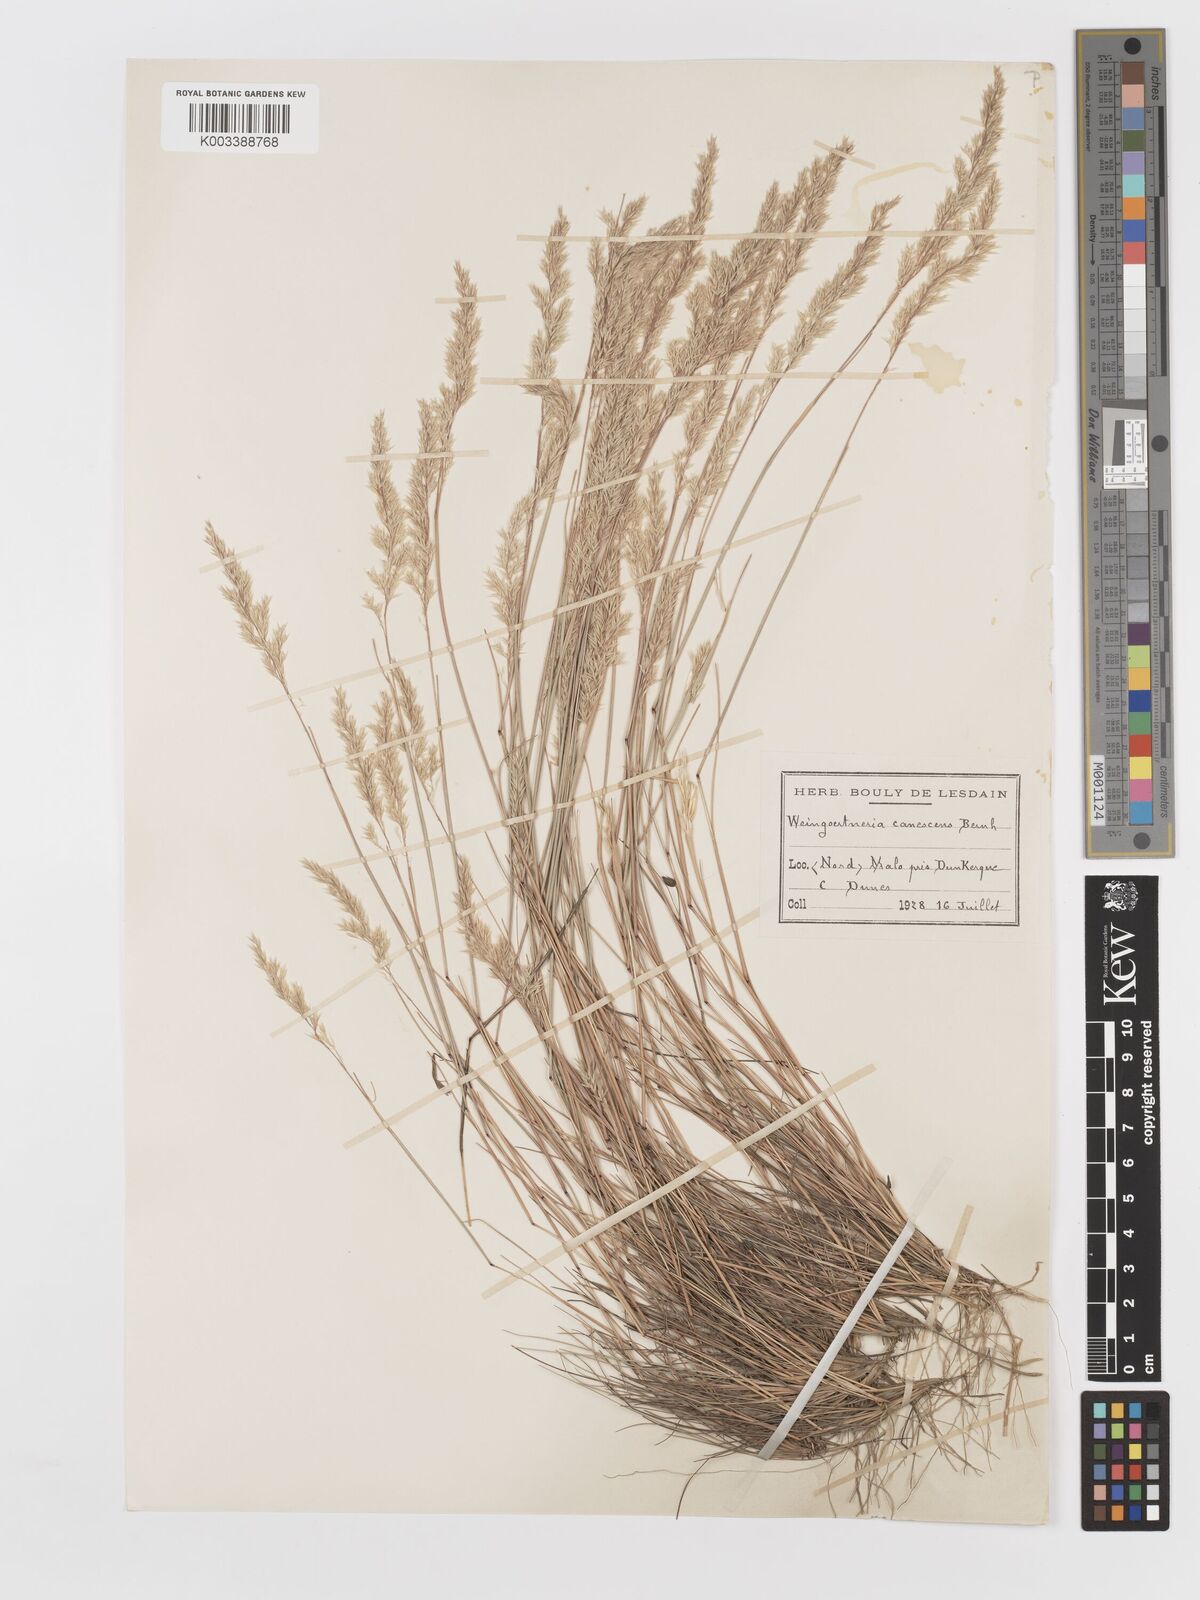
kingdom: Plantae
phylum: Tracheophyta
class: Liliopsida
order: Poales
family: Poaceae
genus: Corynephorus
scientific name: Corynephorus canescens
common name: Grey hair-grass
